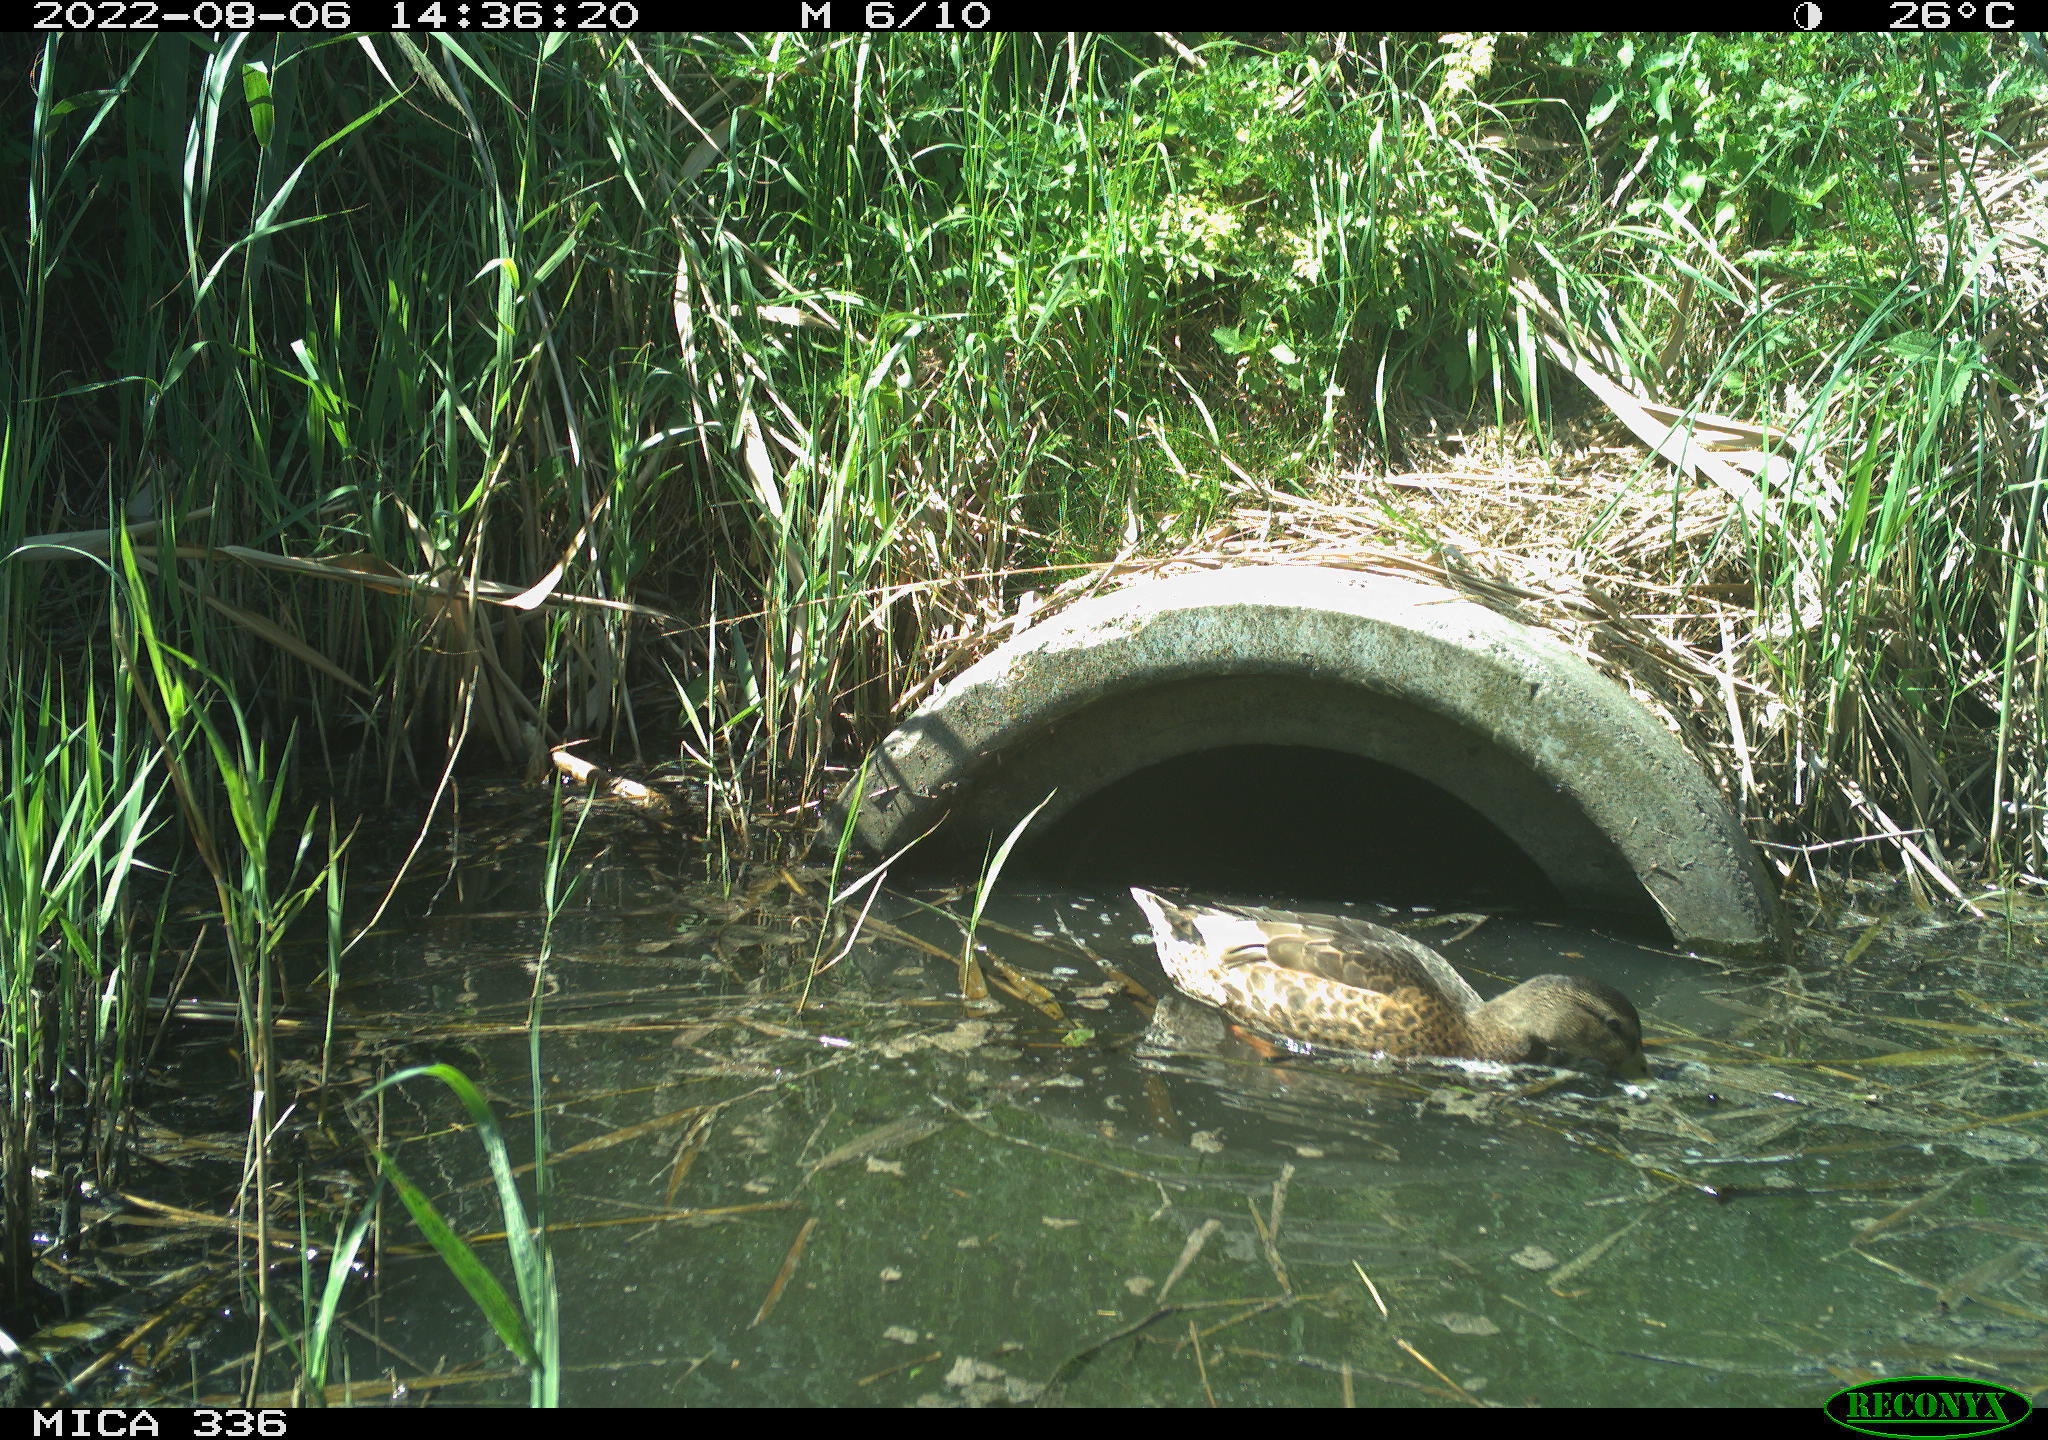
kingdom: Animalia
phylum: Chordata
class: Aves
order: Anseriformes
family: Anatidae
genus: Anas
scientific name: Anas platyrhynchos
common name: Mallard
